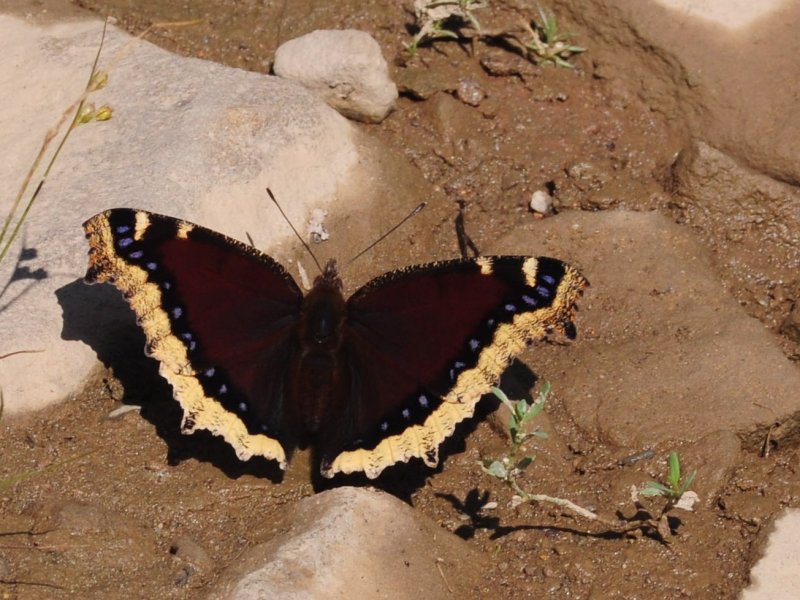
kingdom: Animalia
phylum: Arthropoda
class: Insecta
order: Lepidoptera
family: Nymphalidae
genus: Nymphalis
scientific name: Nymphalis antiopa
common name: Mourning Cloak
